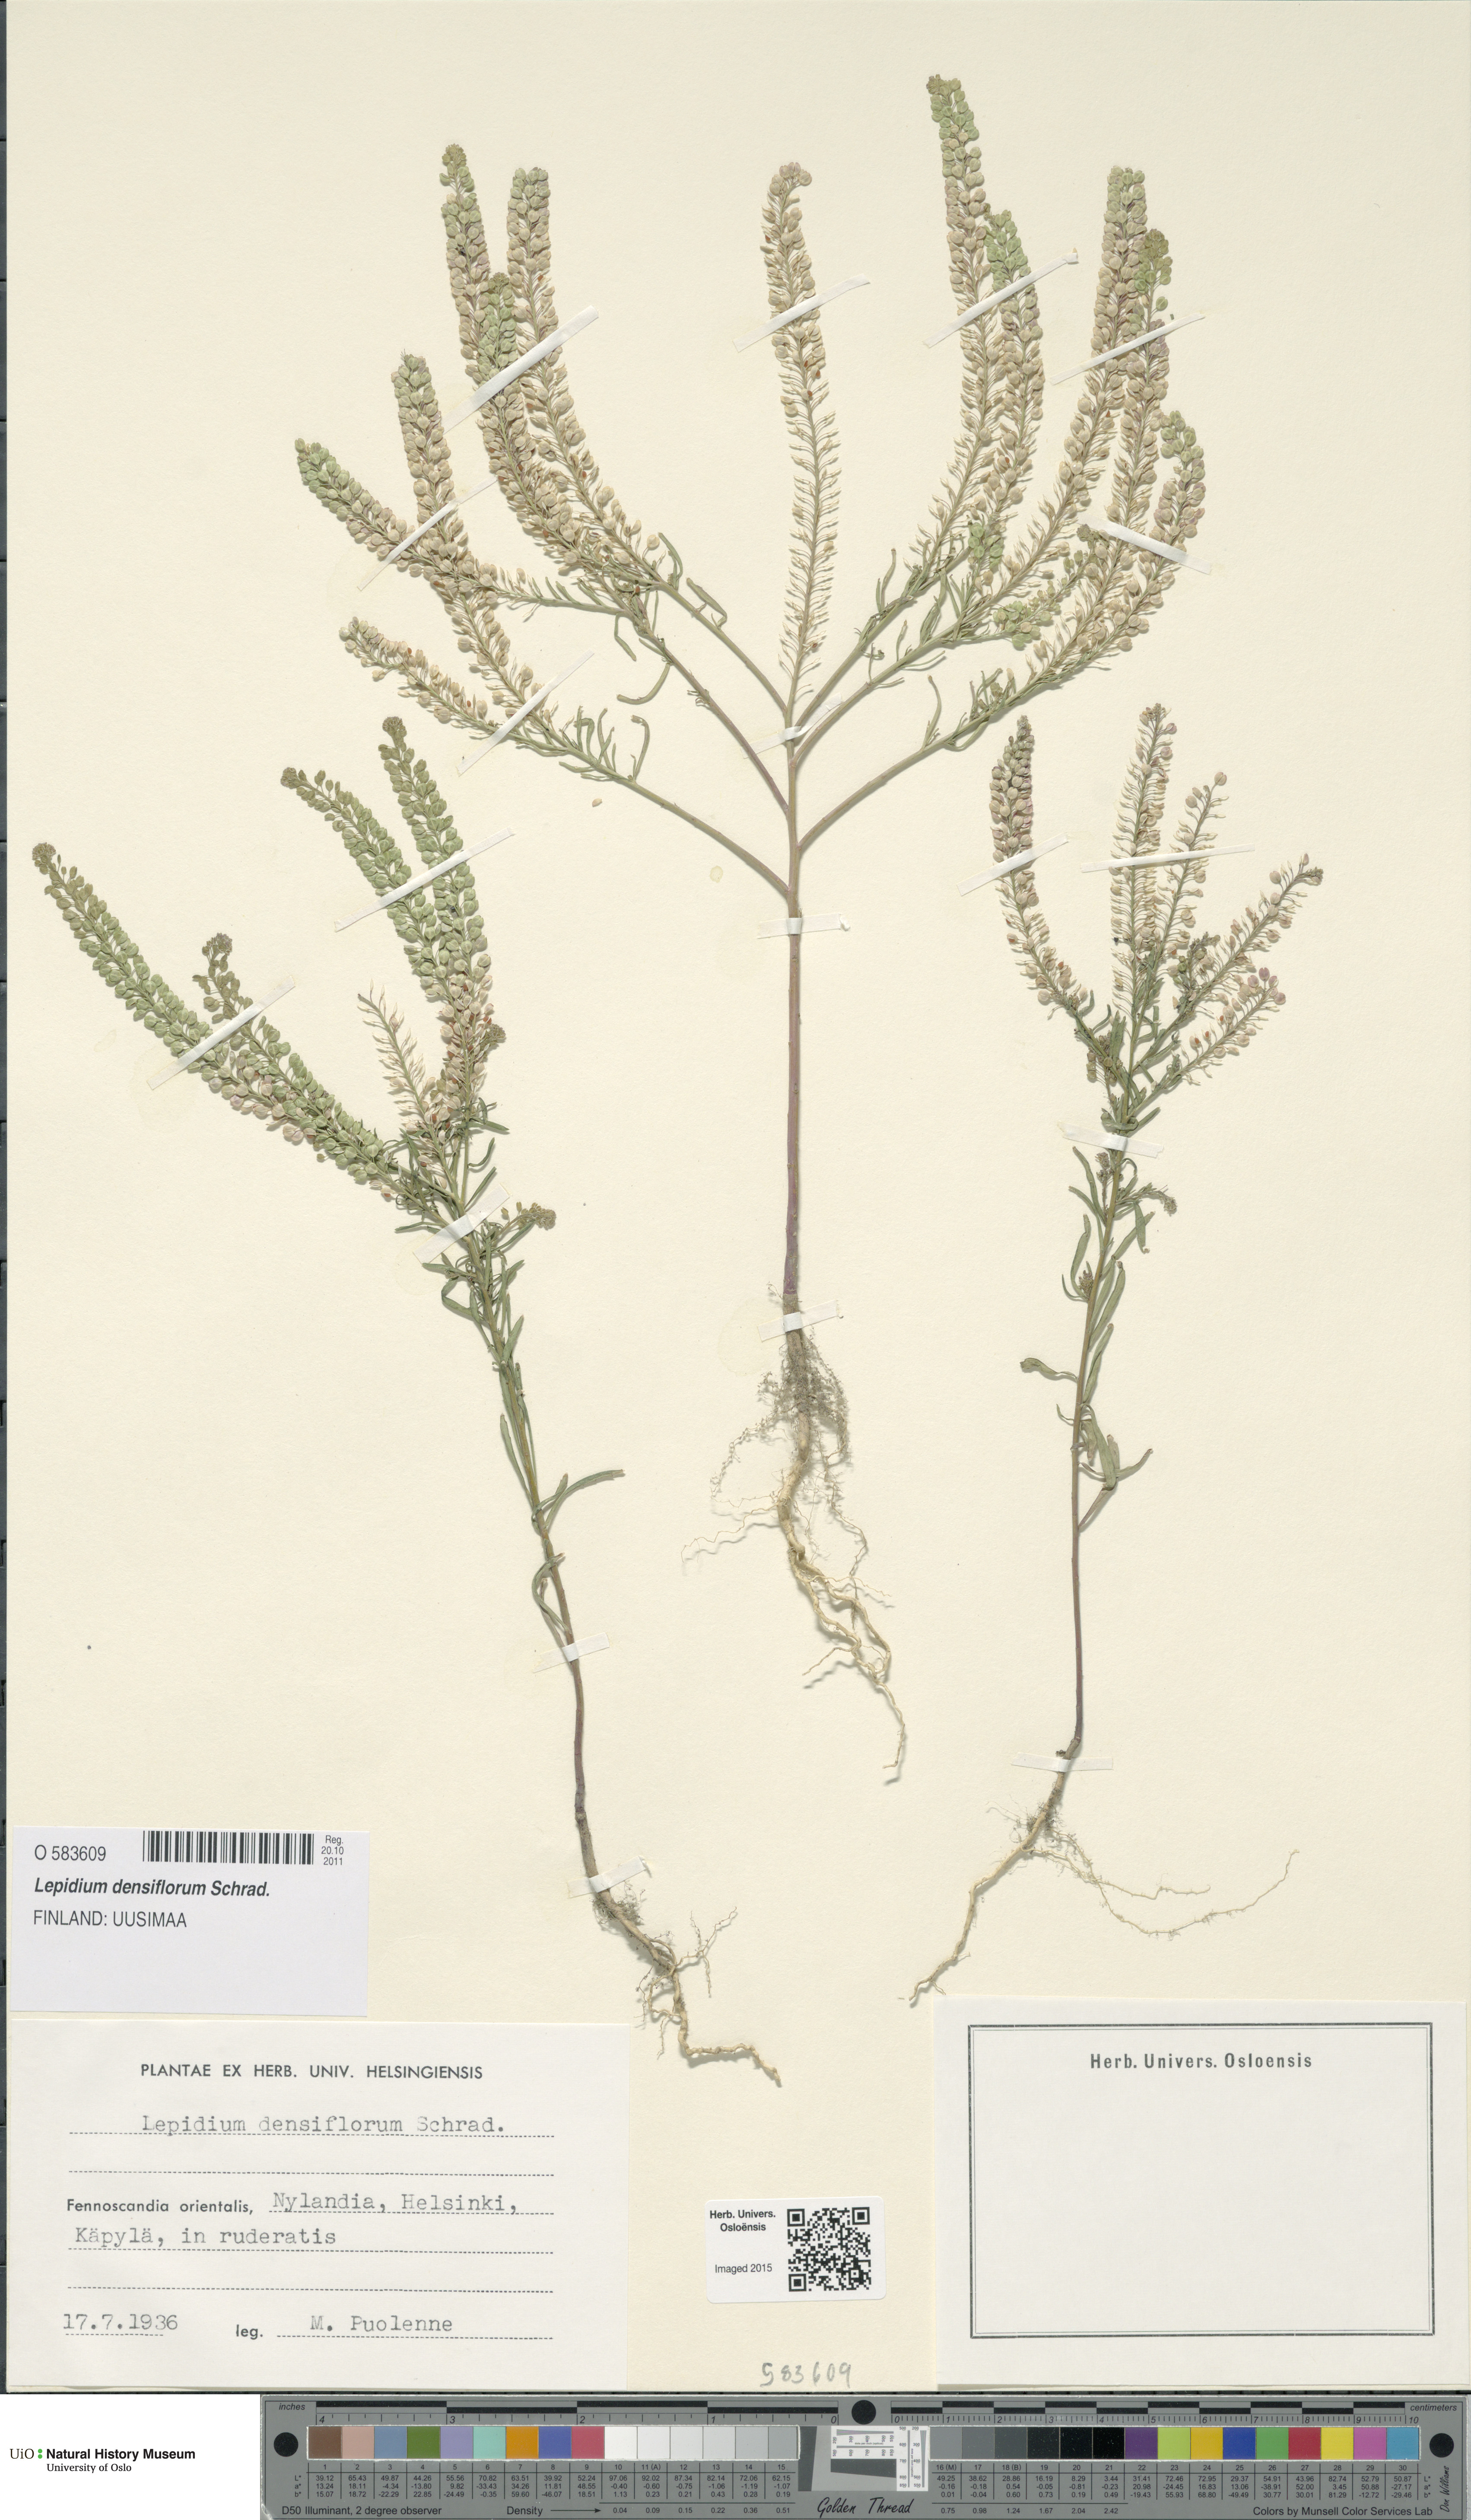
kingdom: Plantae
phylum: Tracheophyta
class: Magnoliopsida
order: Brassicales
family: Brassicaceae
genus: Lepidium
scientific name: Lepidium densiflorum
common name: Miner's pepperwort
